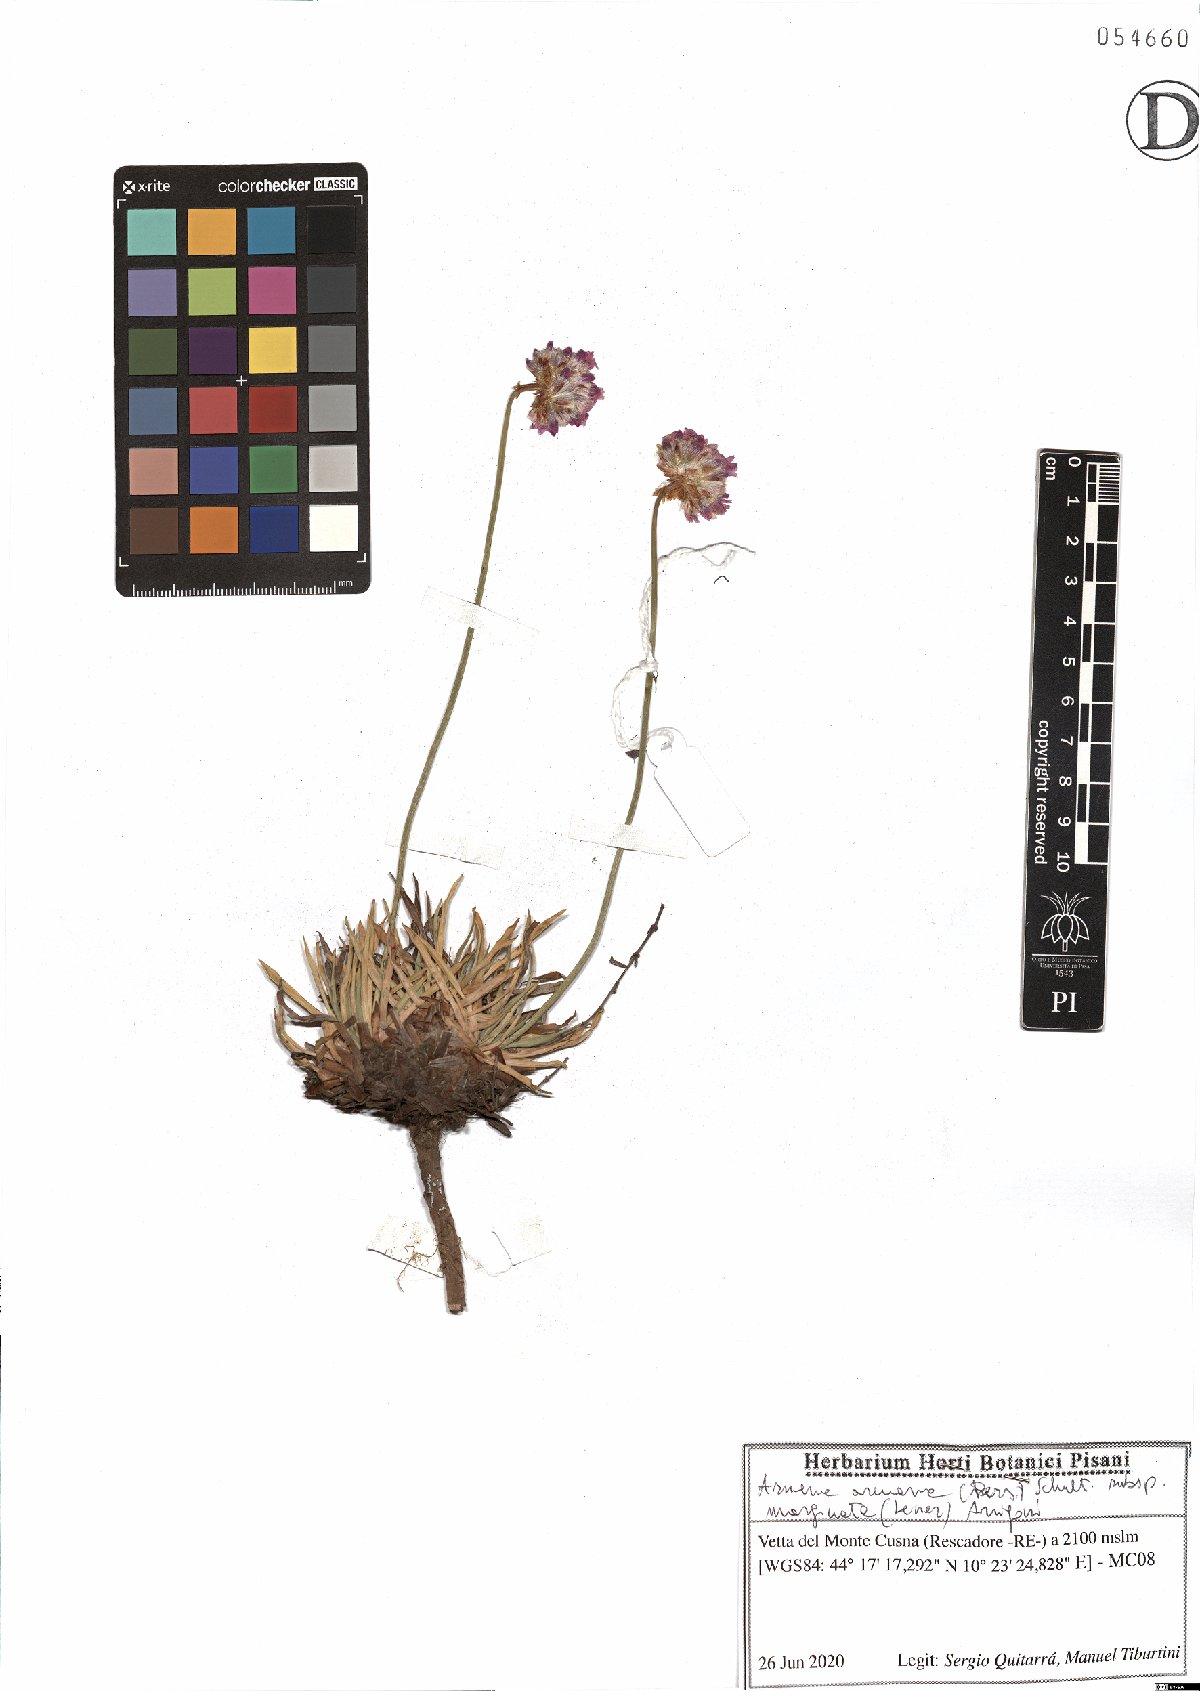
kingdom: Plantae
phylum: Tracheophyta
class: Magnoliopsida
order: Caryophyllales
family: Plumbaginaceae
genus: Armeria
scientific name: Armeria arenaria
